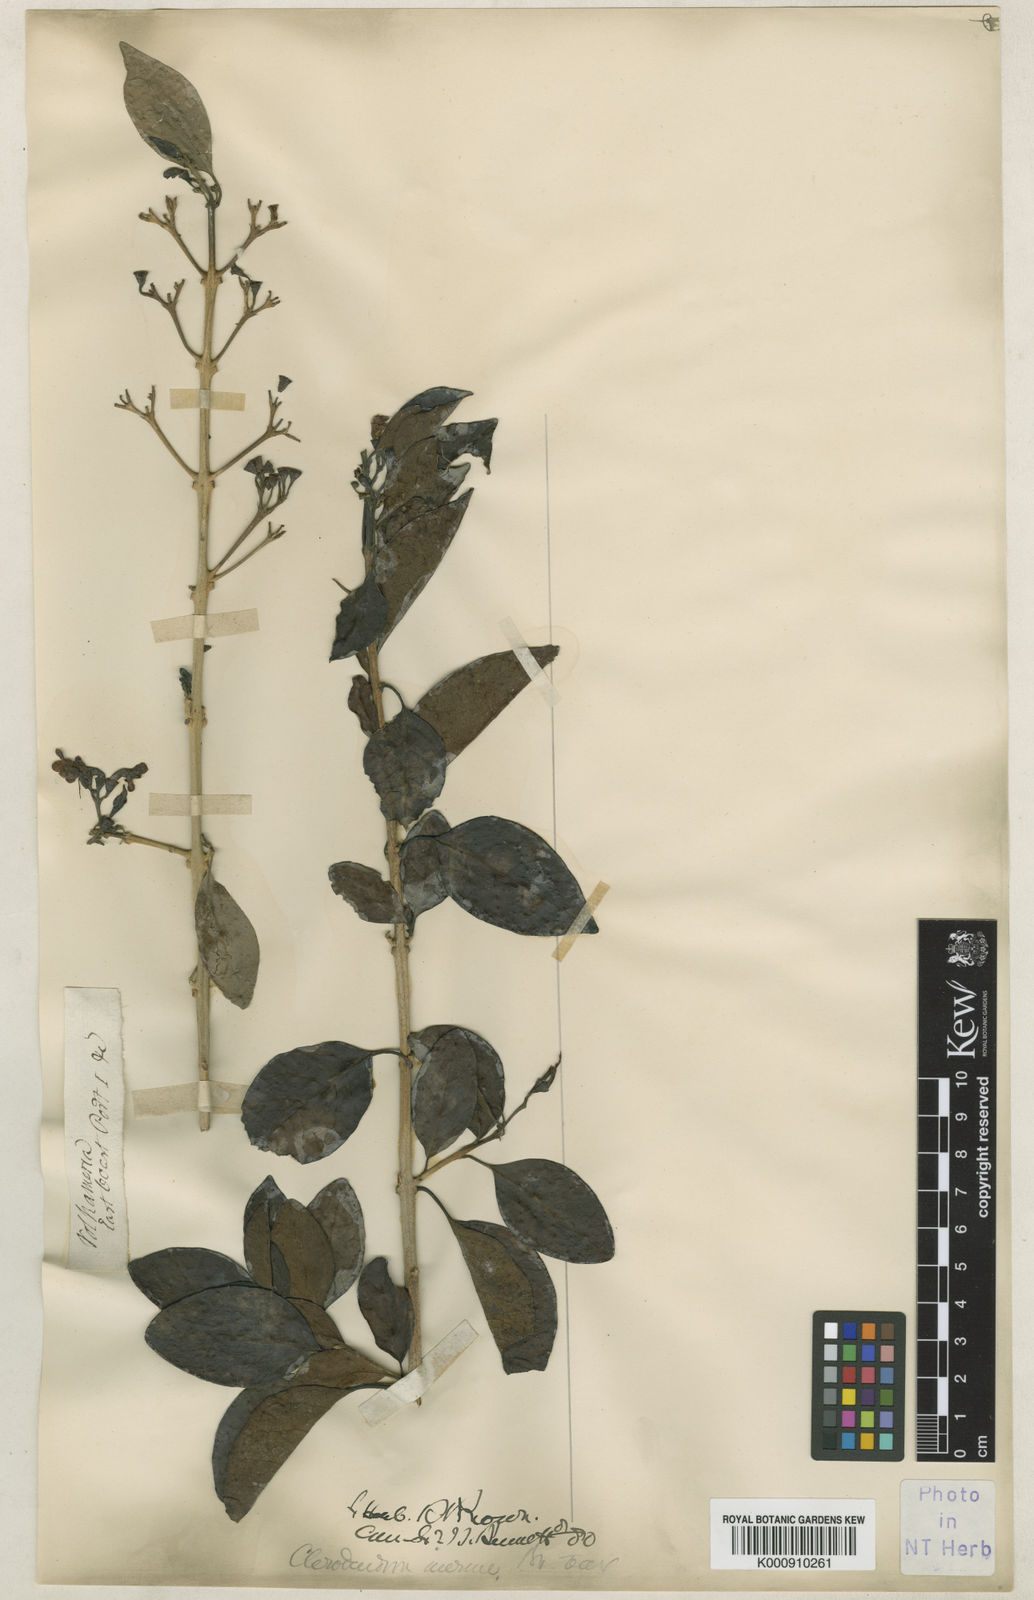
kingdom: Plantae
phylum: Tracheophyta
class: Magnoliopsida
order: Lamiales
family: Lamiaceae
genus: Clerodendrum
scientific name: Clerodendrum
